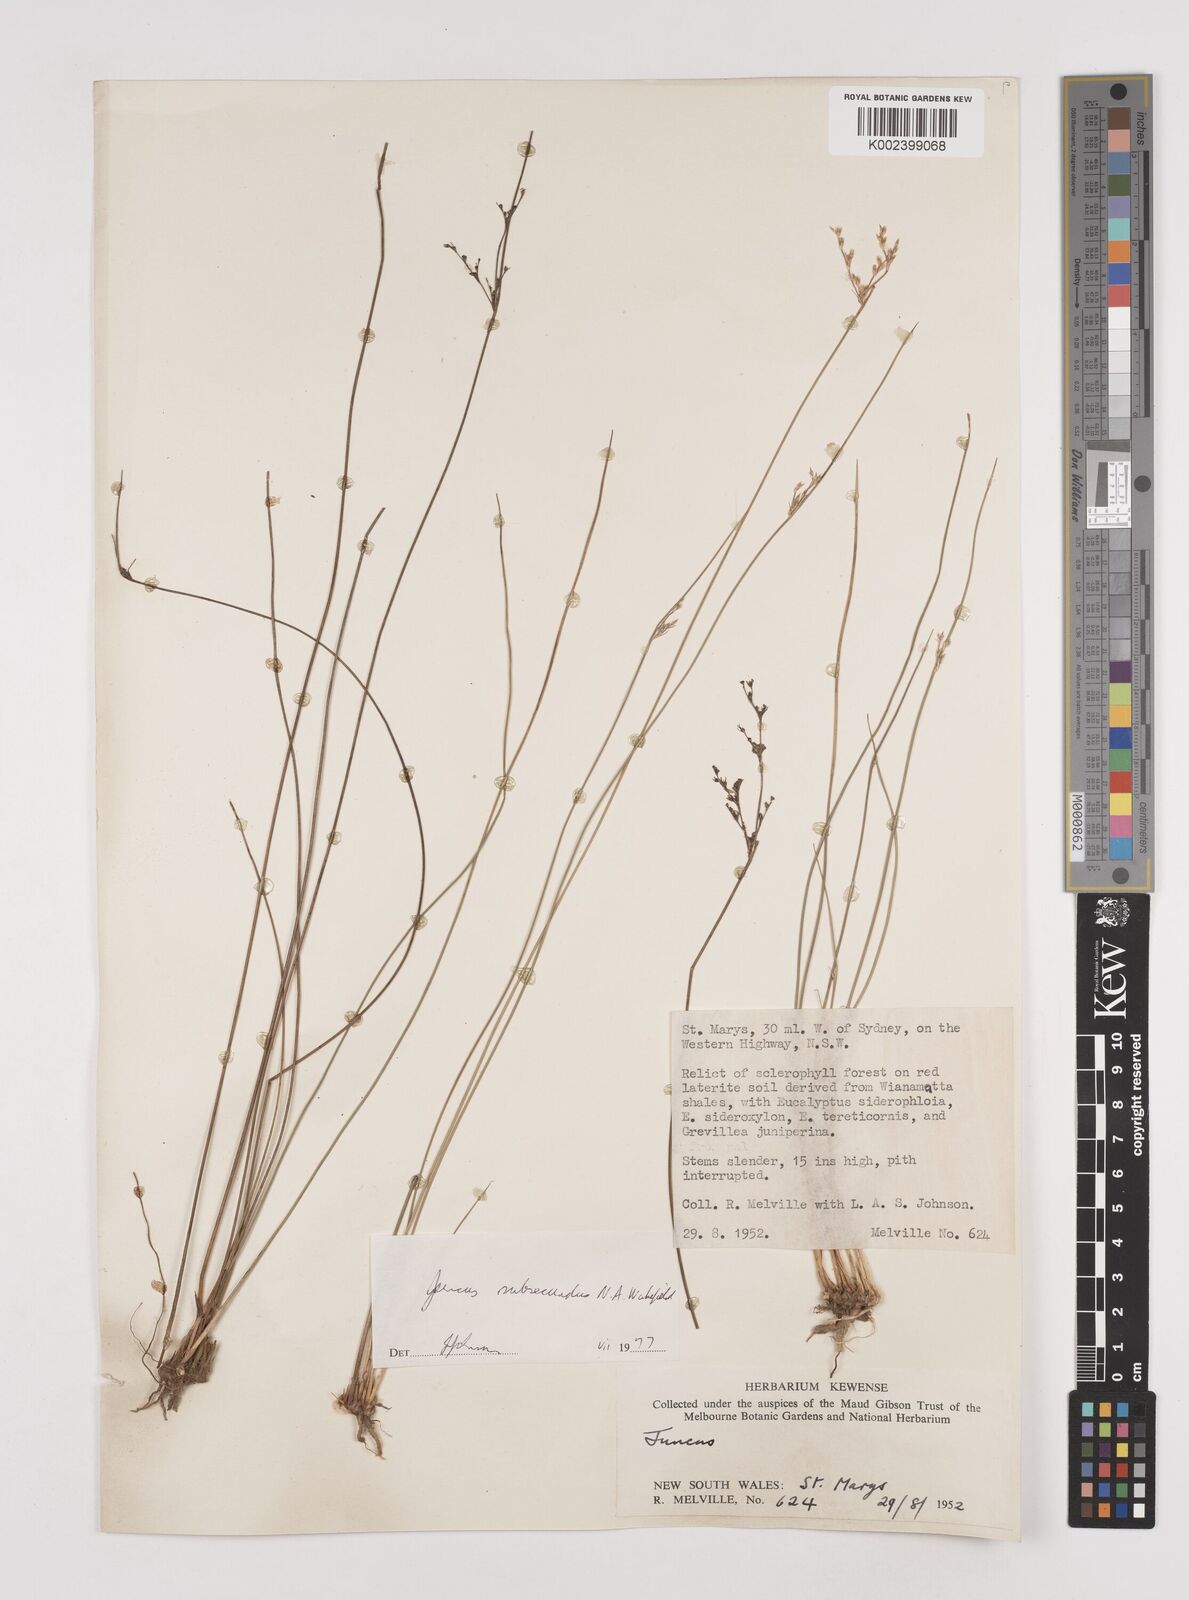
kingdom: Plantae
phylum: Tracheophyta
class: Liliopsida
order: Poales
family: Juncaceae
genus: Juncus
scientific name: Juncus subsecundus
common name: Fingered rush
